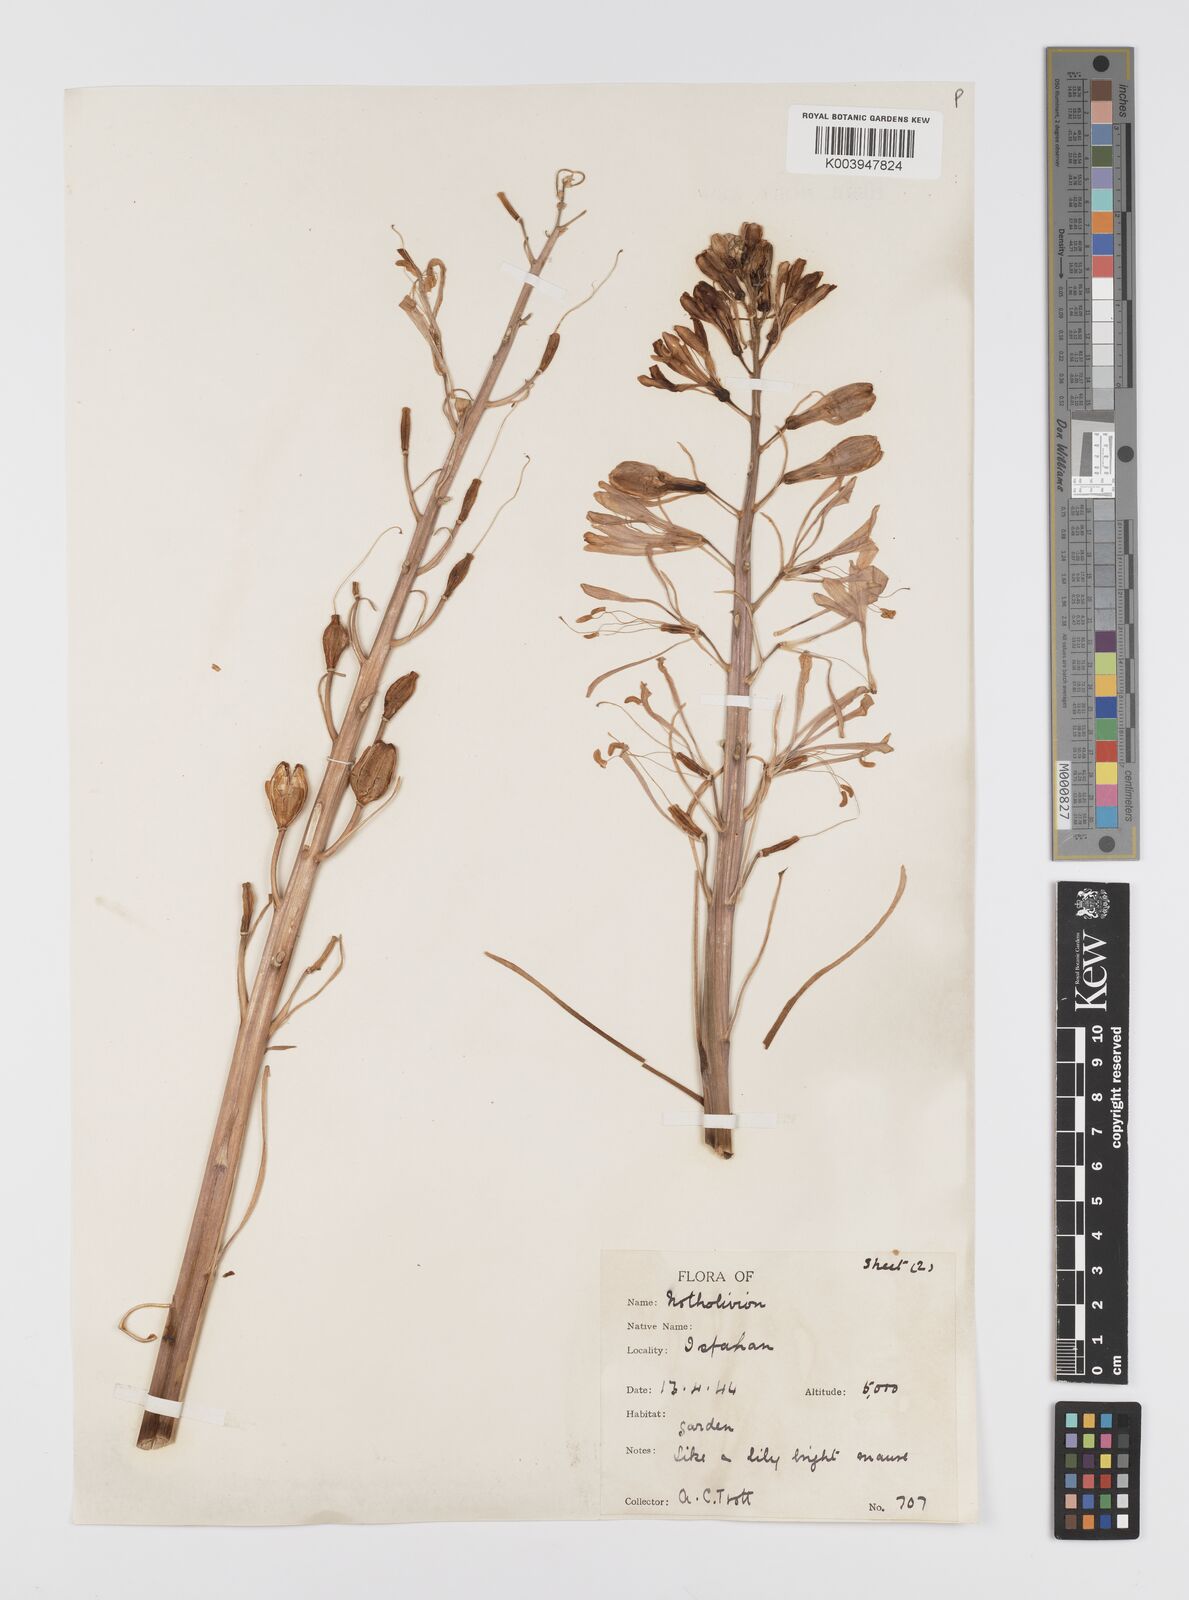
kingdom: Plantae
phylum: Tracheophyta
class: Liliopsida
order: Liliales
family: Liliaceae
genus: Notholirion
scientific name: Notholirion
